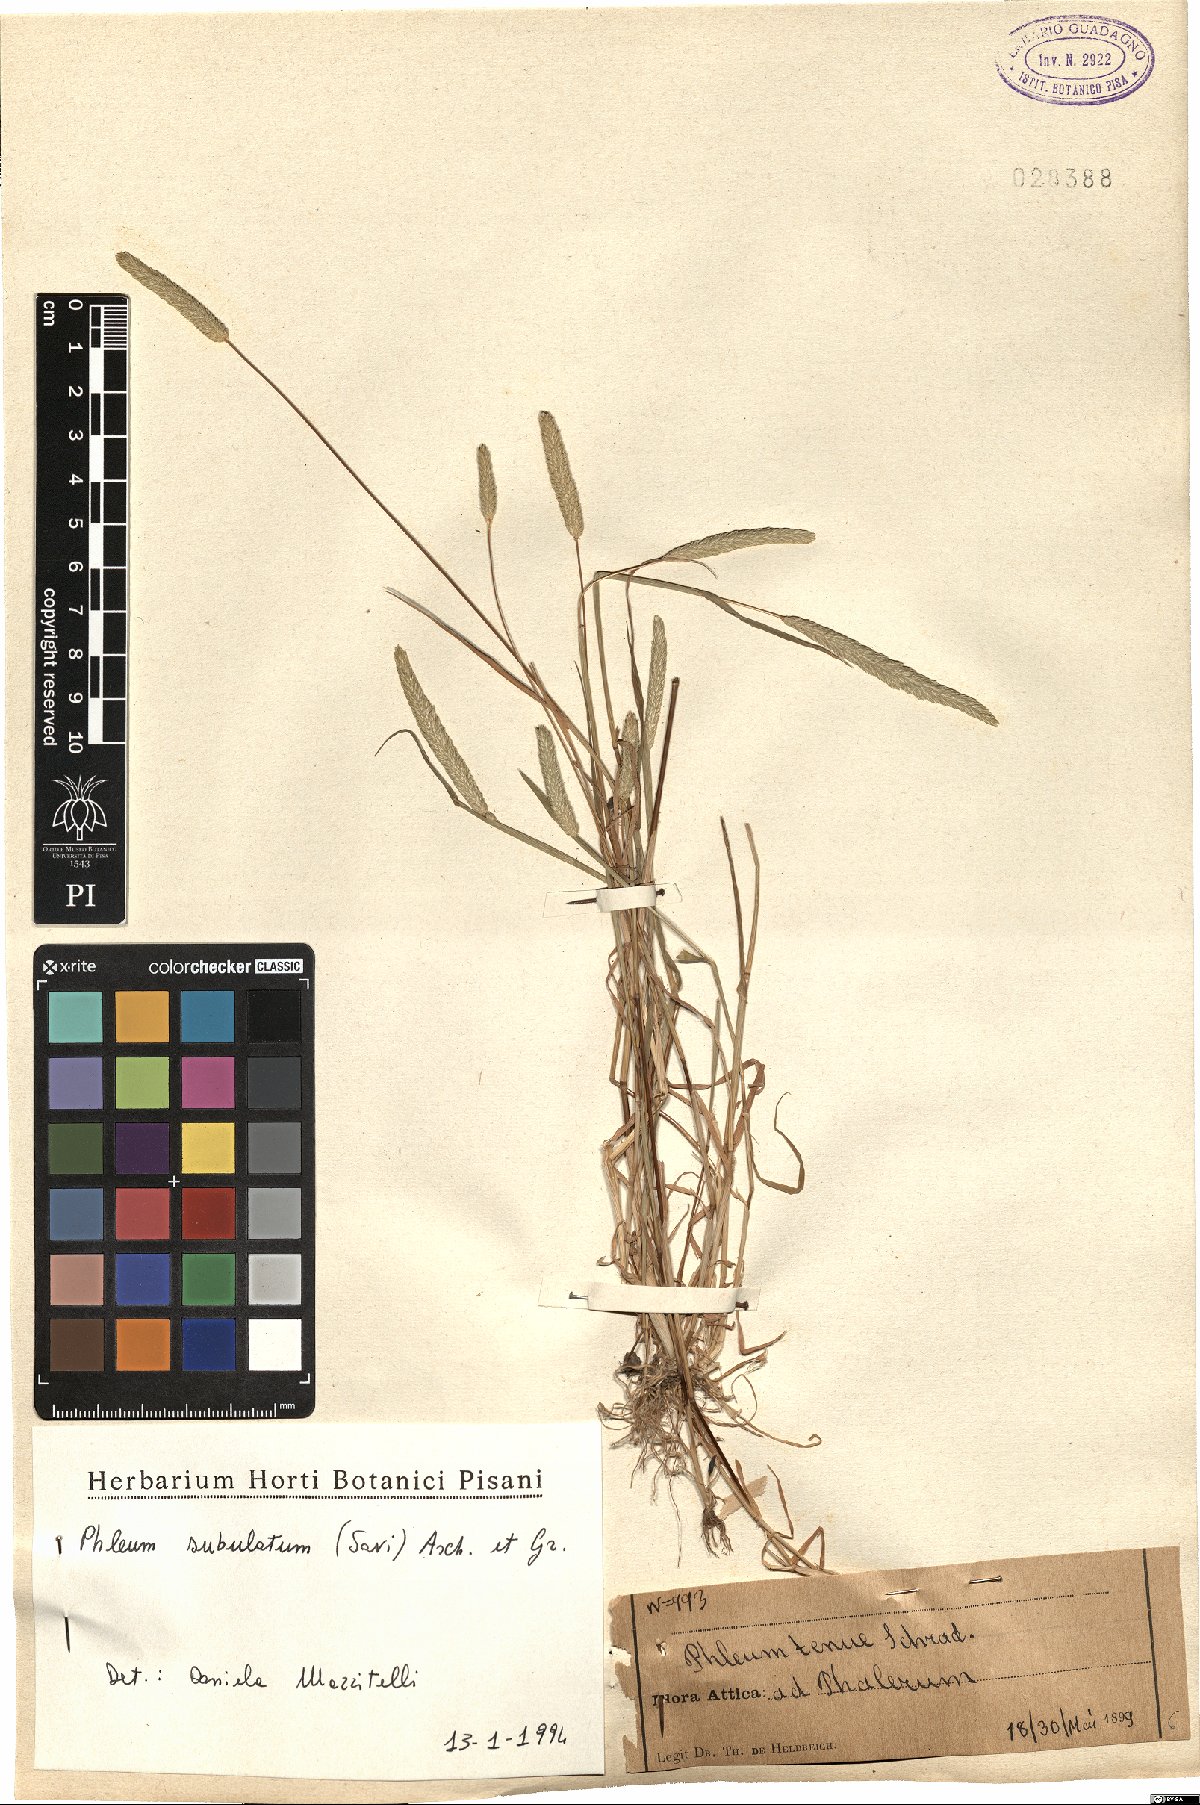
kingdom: Plantae
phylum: Tracheophyta
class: Liliopsida
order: Poales
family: Poaceae
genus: Phleum
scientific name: Phleum subulatum
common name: Italian timothy
